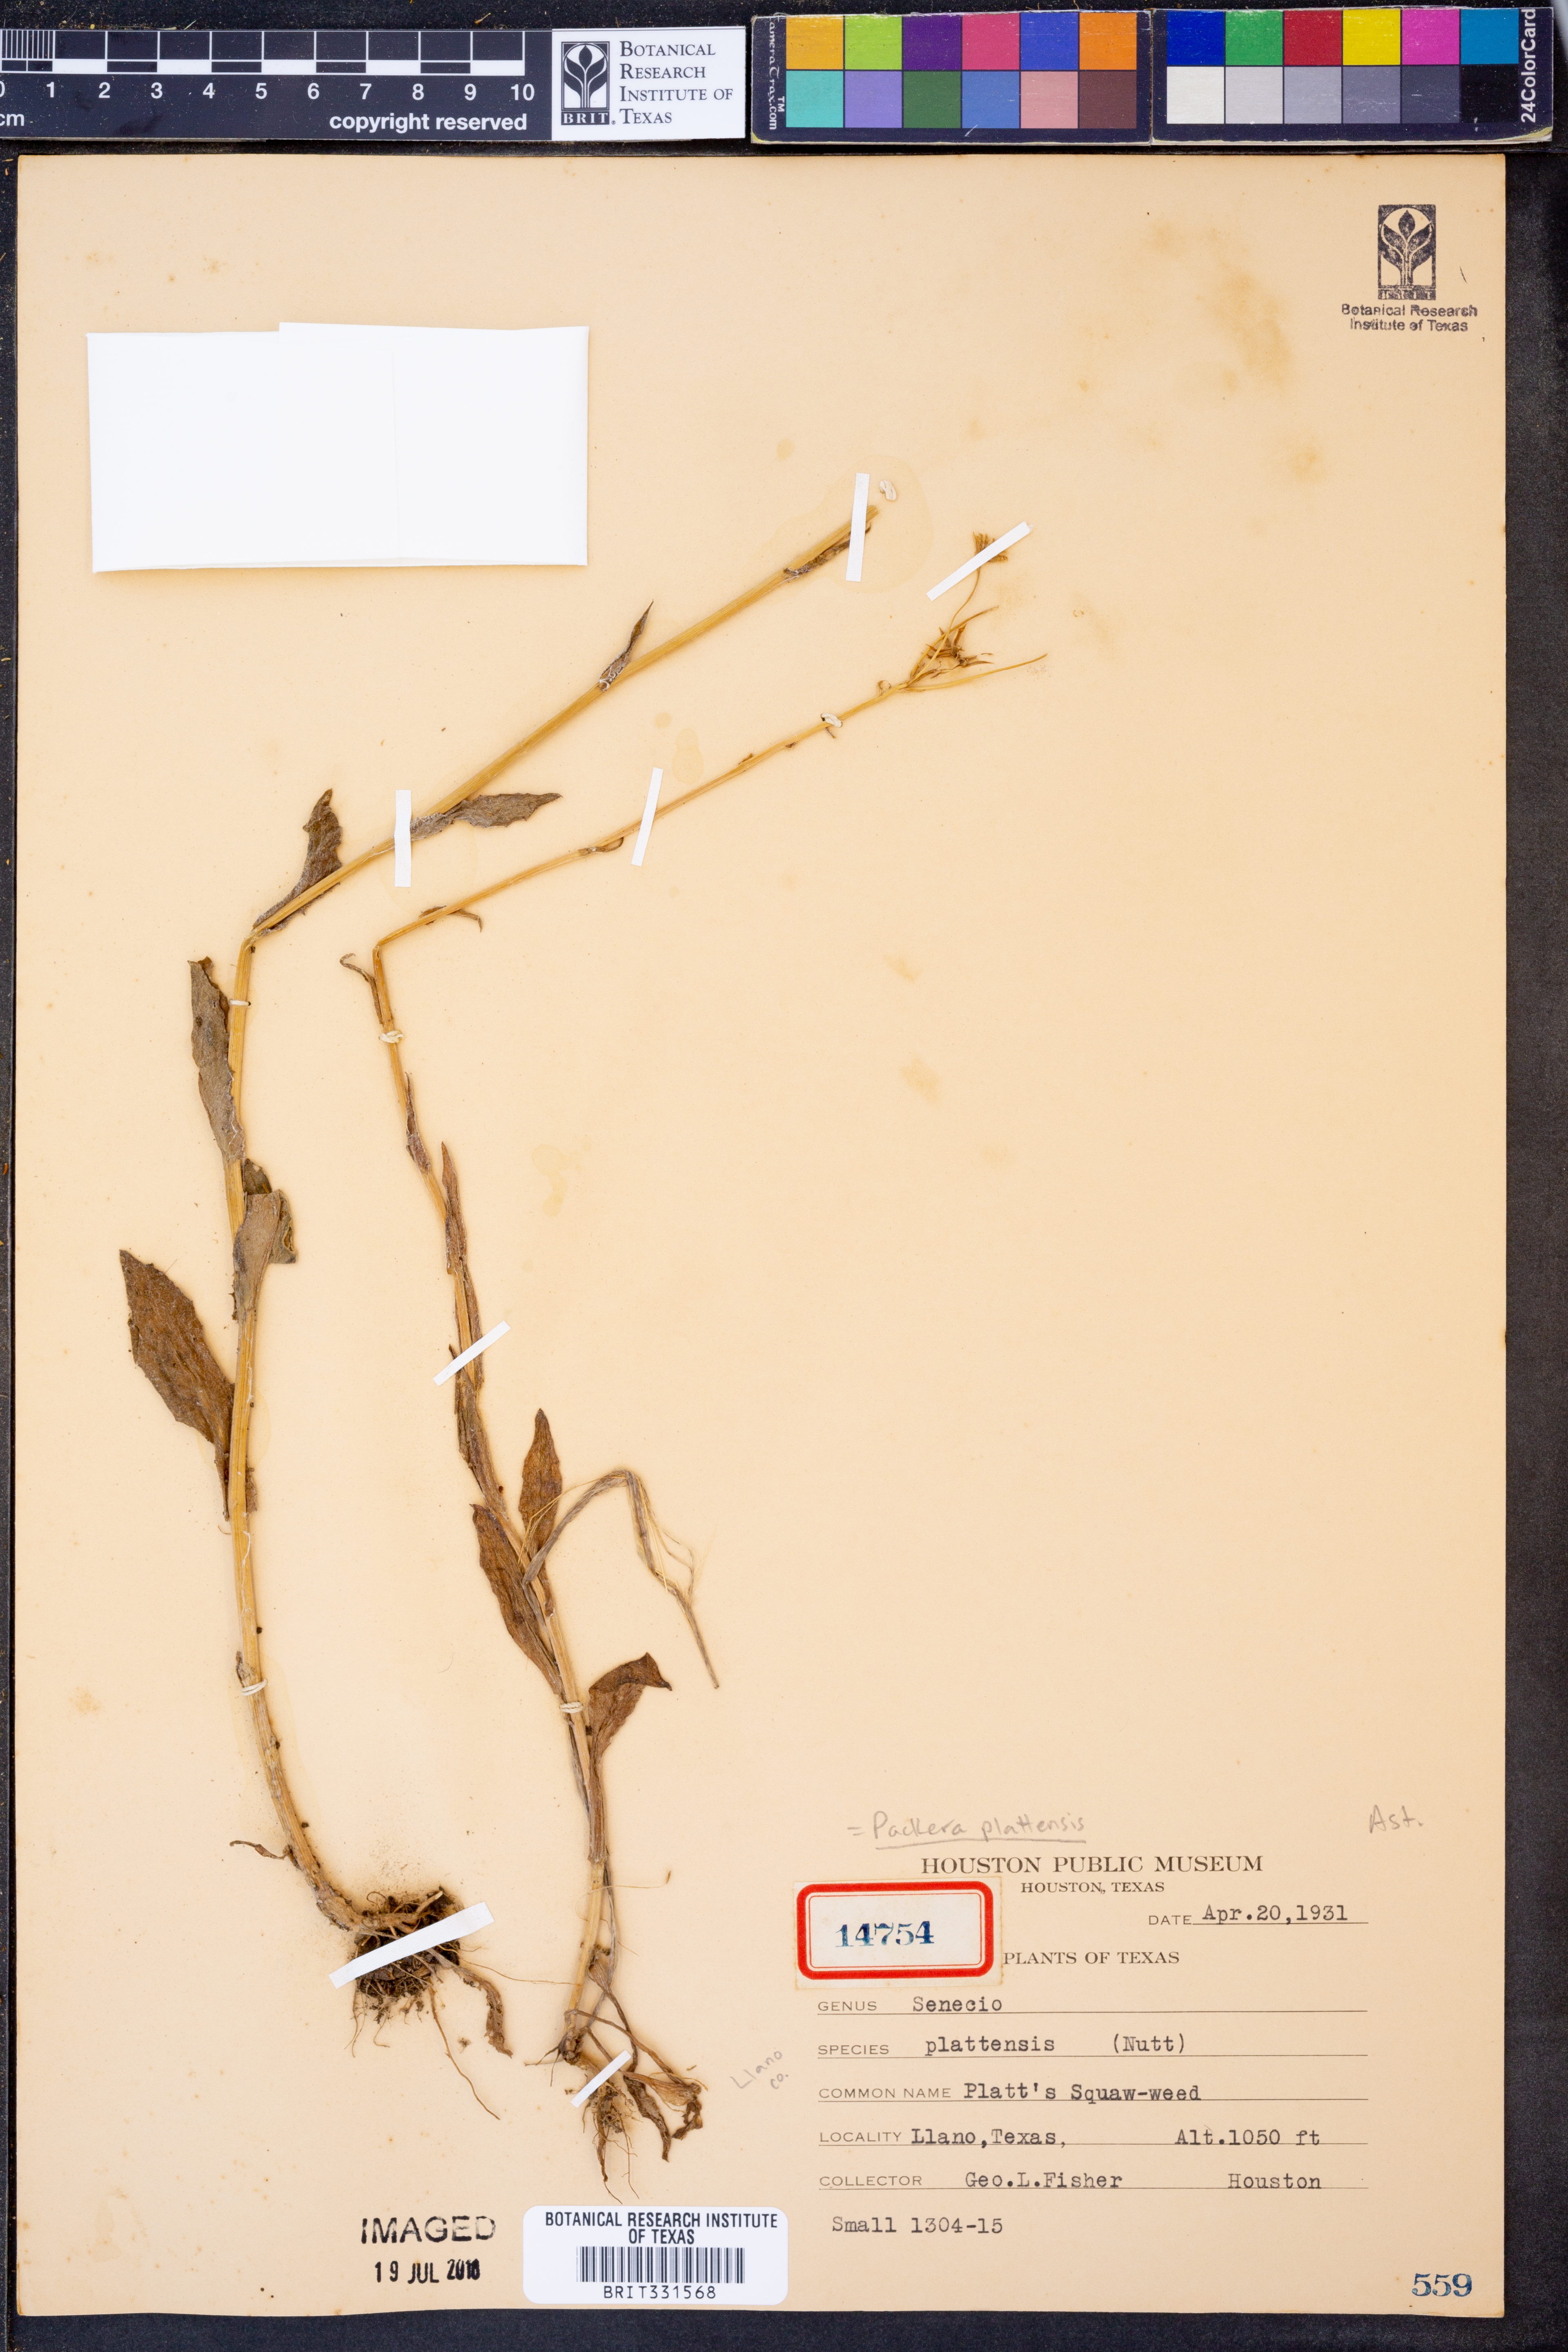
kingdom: Plantae
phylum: Tracheophyta
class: Magnoliopsida
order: Asterales
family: Asteraceae
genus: Packera
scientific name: Packera plattensis
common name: Prairie groundsel
